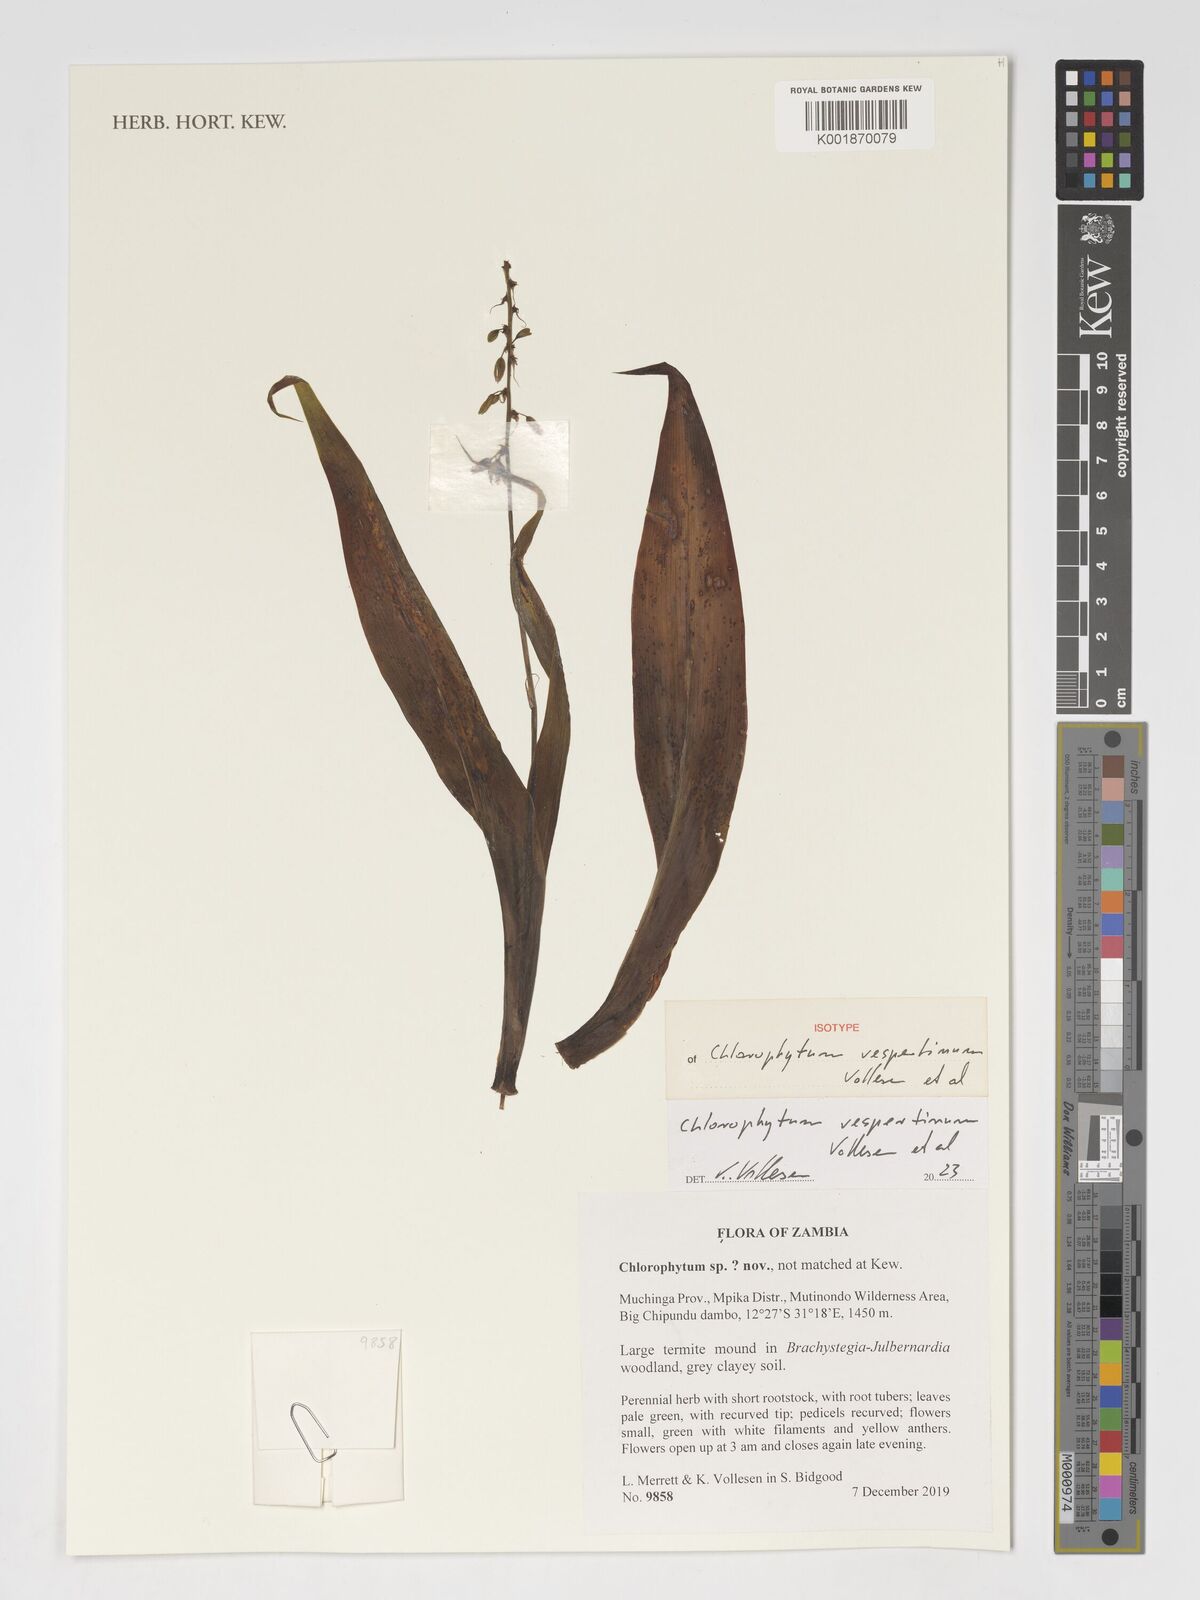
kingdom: Plantae
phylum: Tracheophyta
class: Liliopsida
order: Asparagales
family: Asparagaceae
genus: Chlorophytum
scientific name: Chlorophytum
